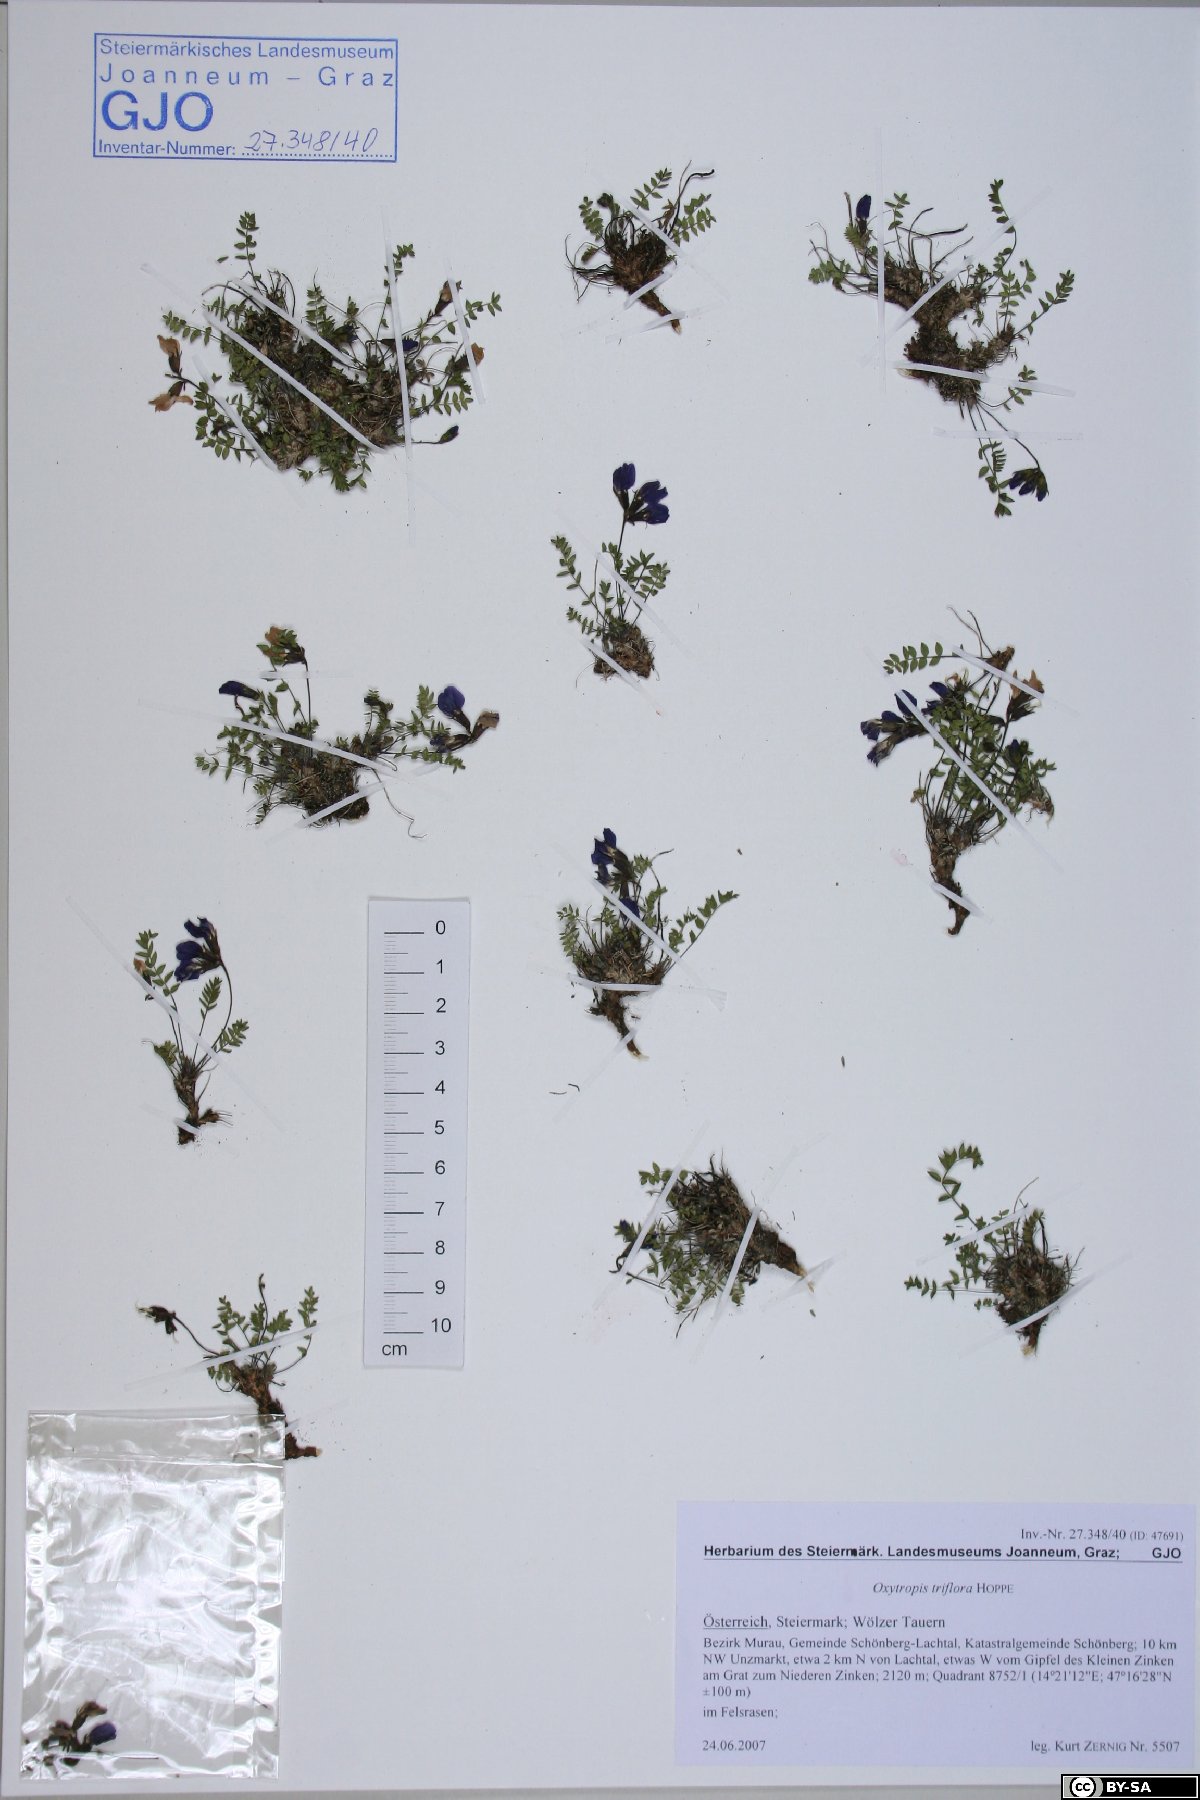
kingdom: Plantae
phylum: Tracheophyta
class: Magnoliopsida
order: Fabales
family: Fabaceae
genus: Oxytropis
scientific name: Oxytropis triflora
